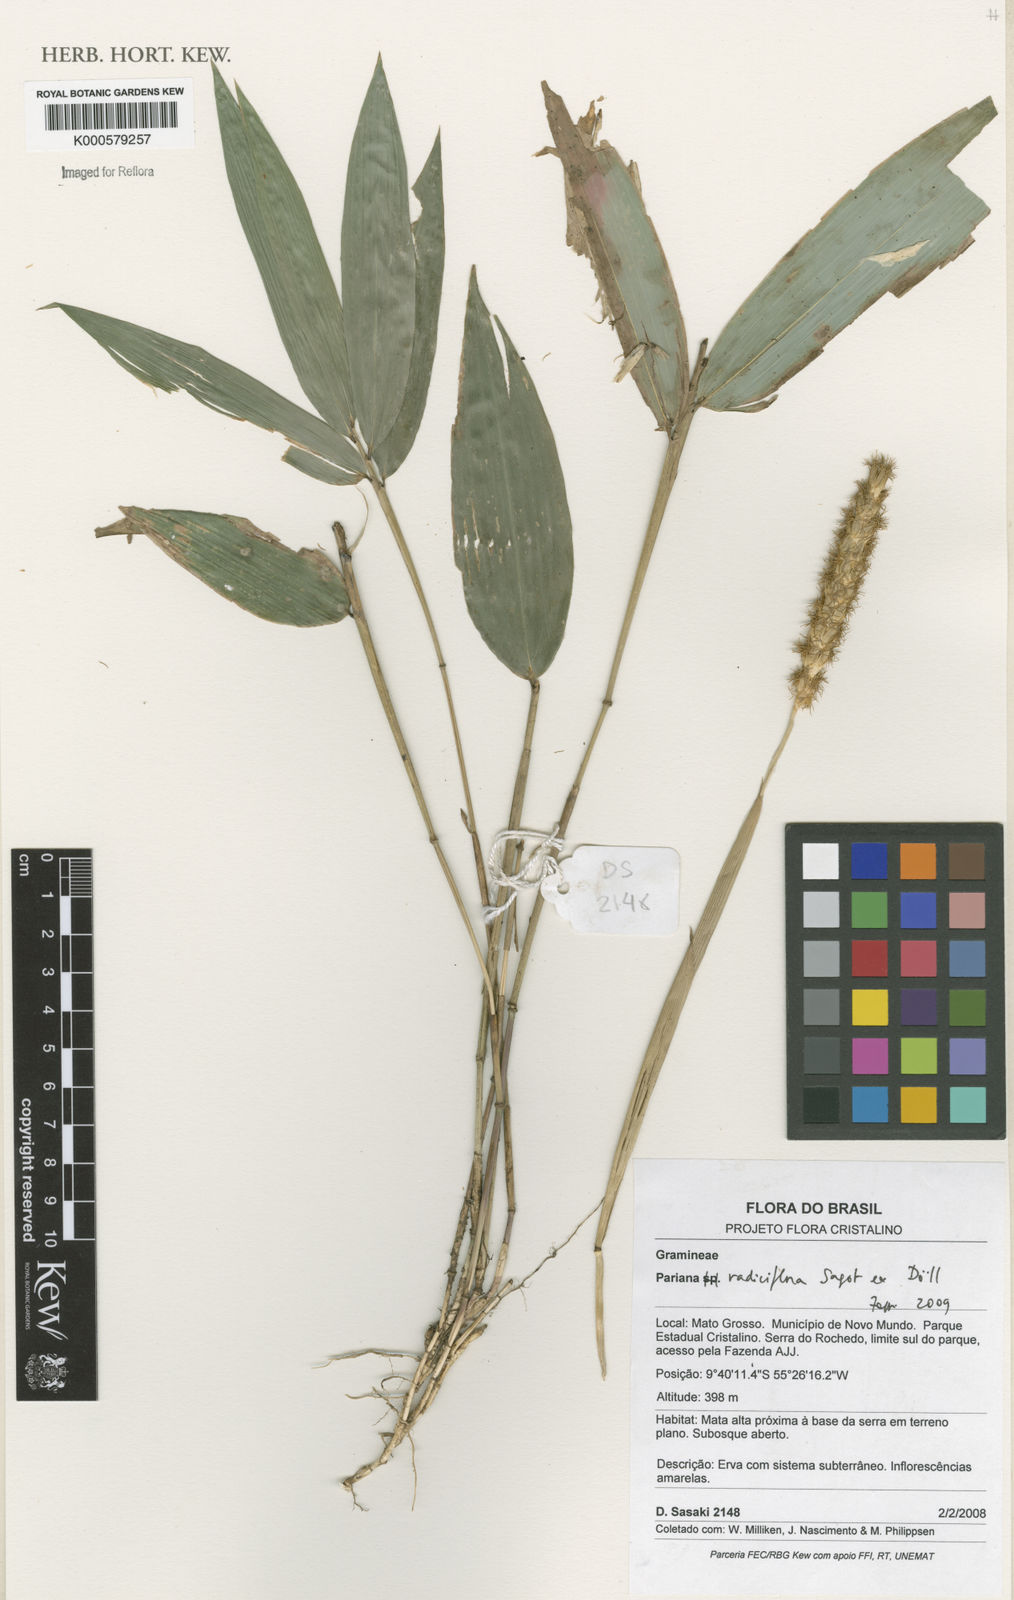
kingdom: Plantae
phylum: Tracheophyta
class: Liliopsida
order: Poales
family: Poaceae
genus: Pariana
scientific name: Pariana
